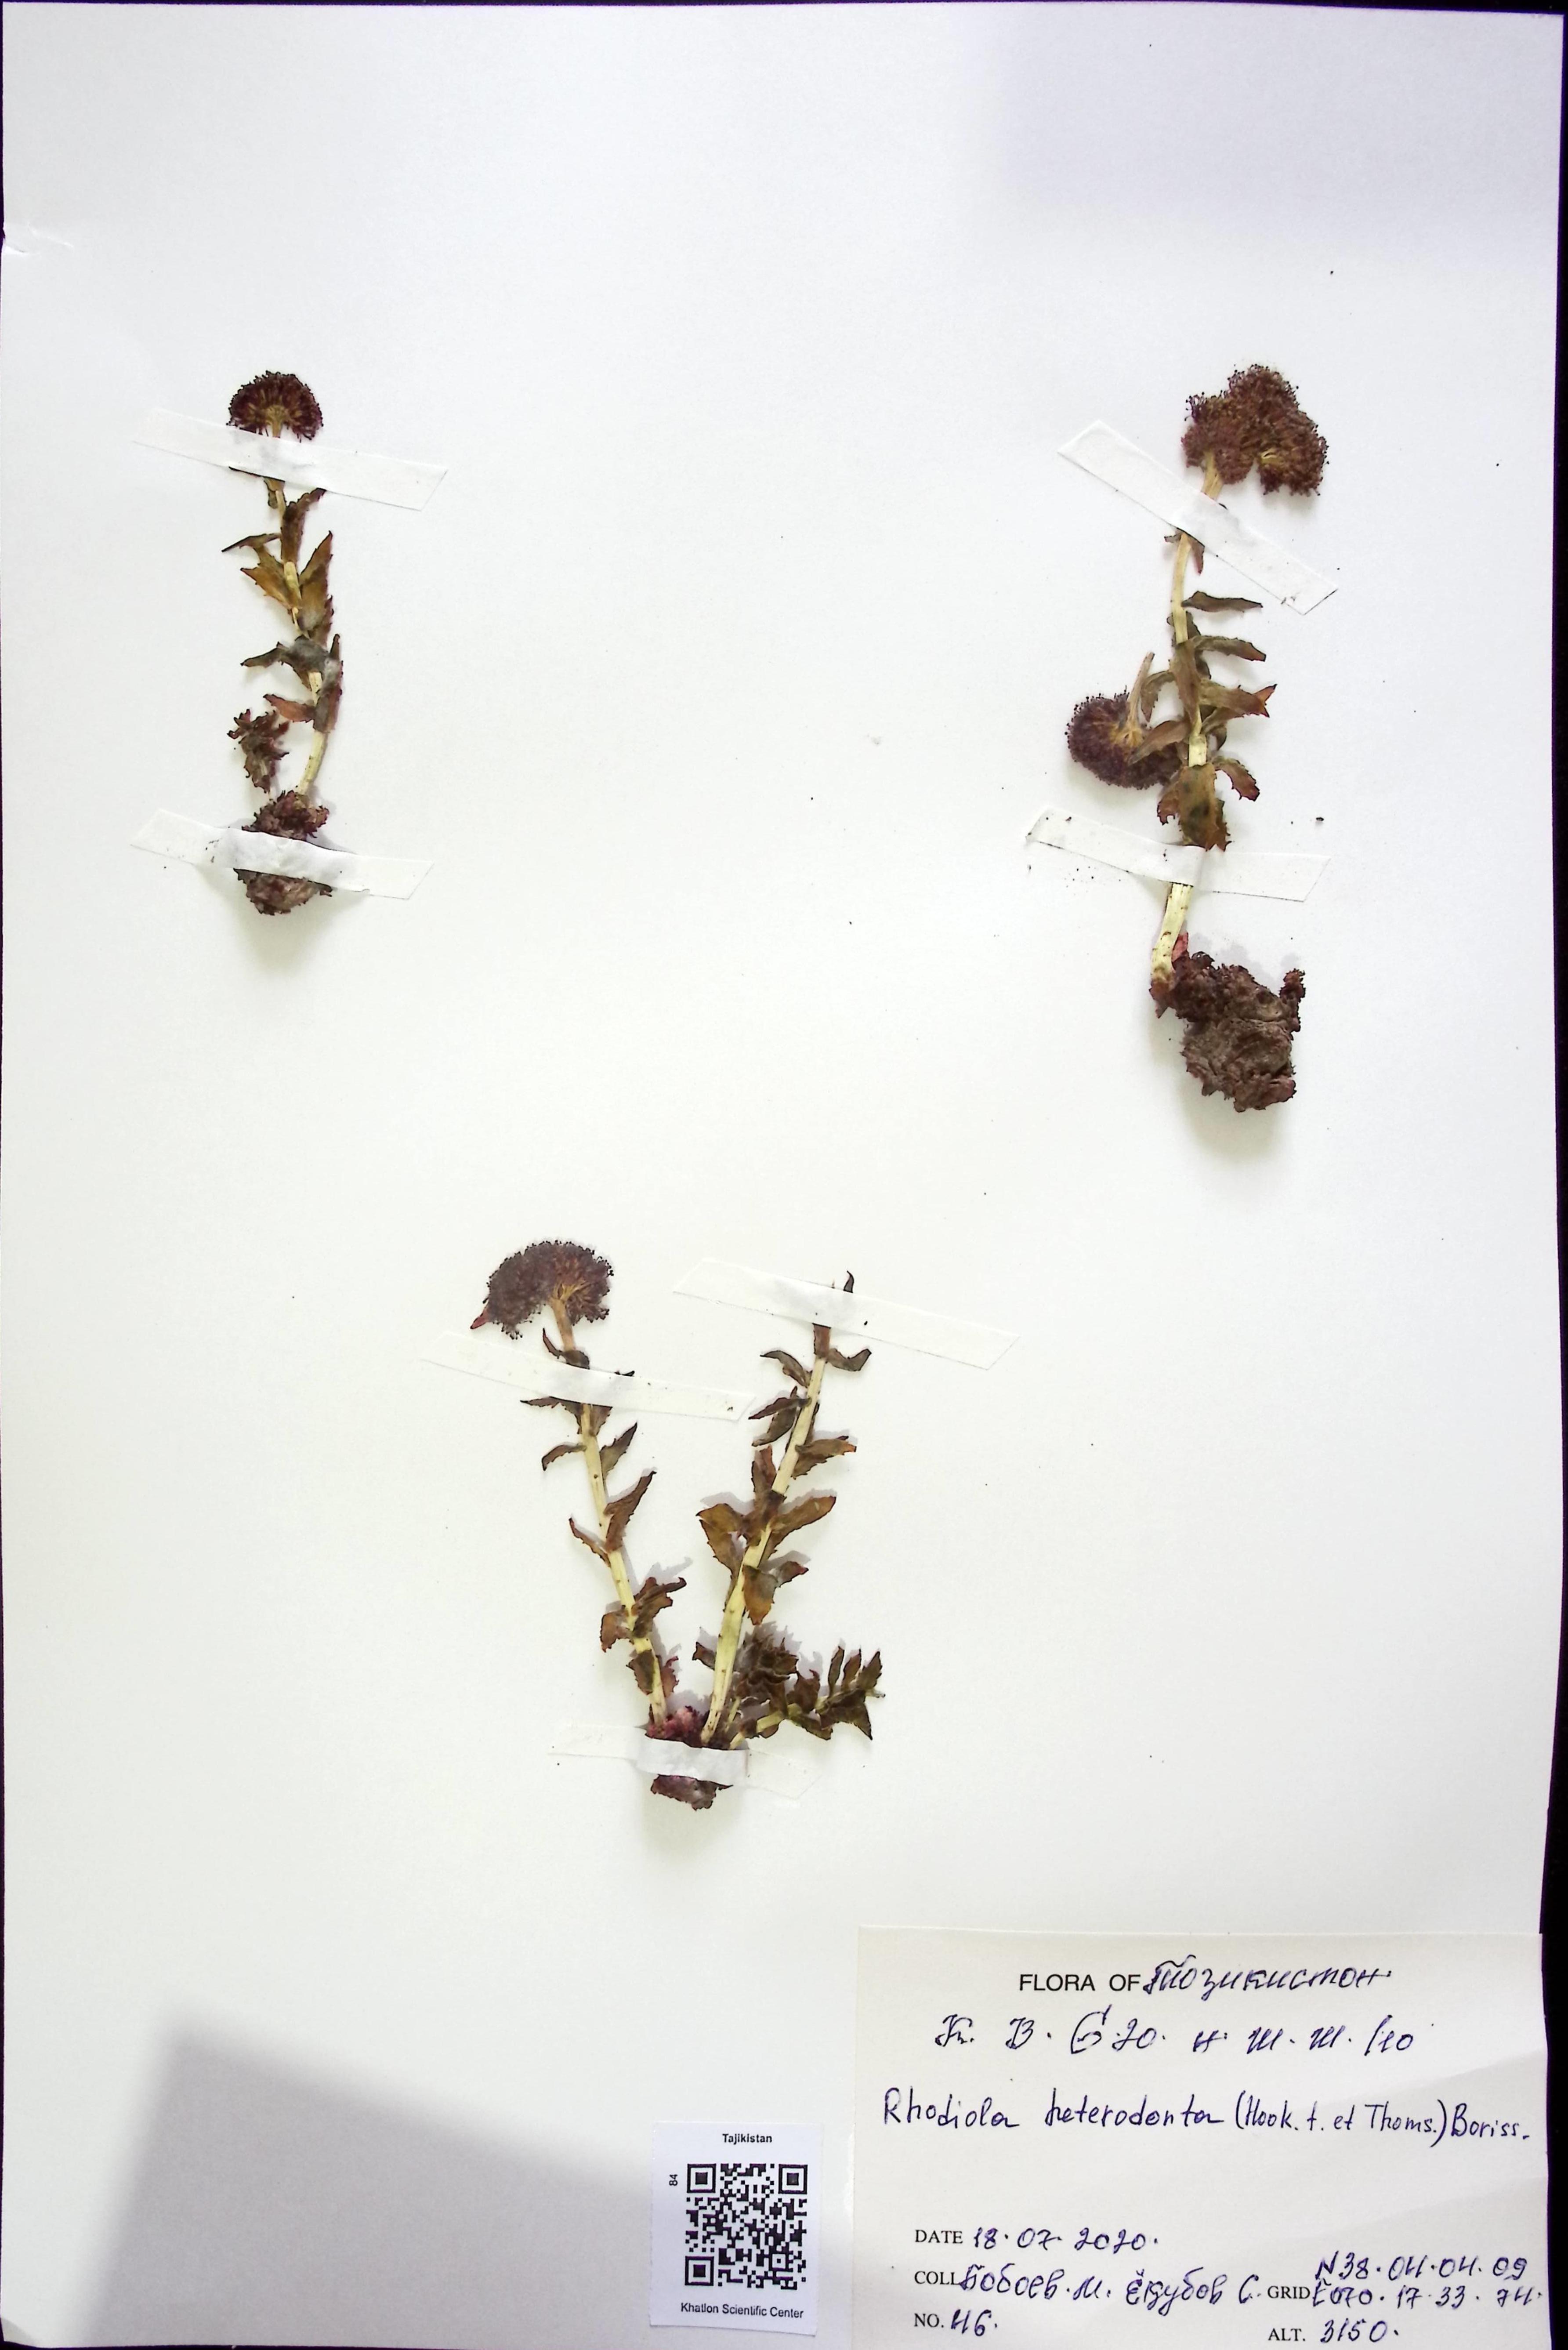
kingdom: Plantae
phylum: Tracheophyta
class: Magnoliopsida
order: Saxifragales
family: Crassulaceae
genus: Rhodiola
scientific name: Rhodiola heterodonta
